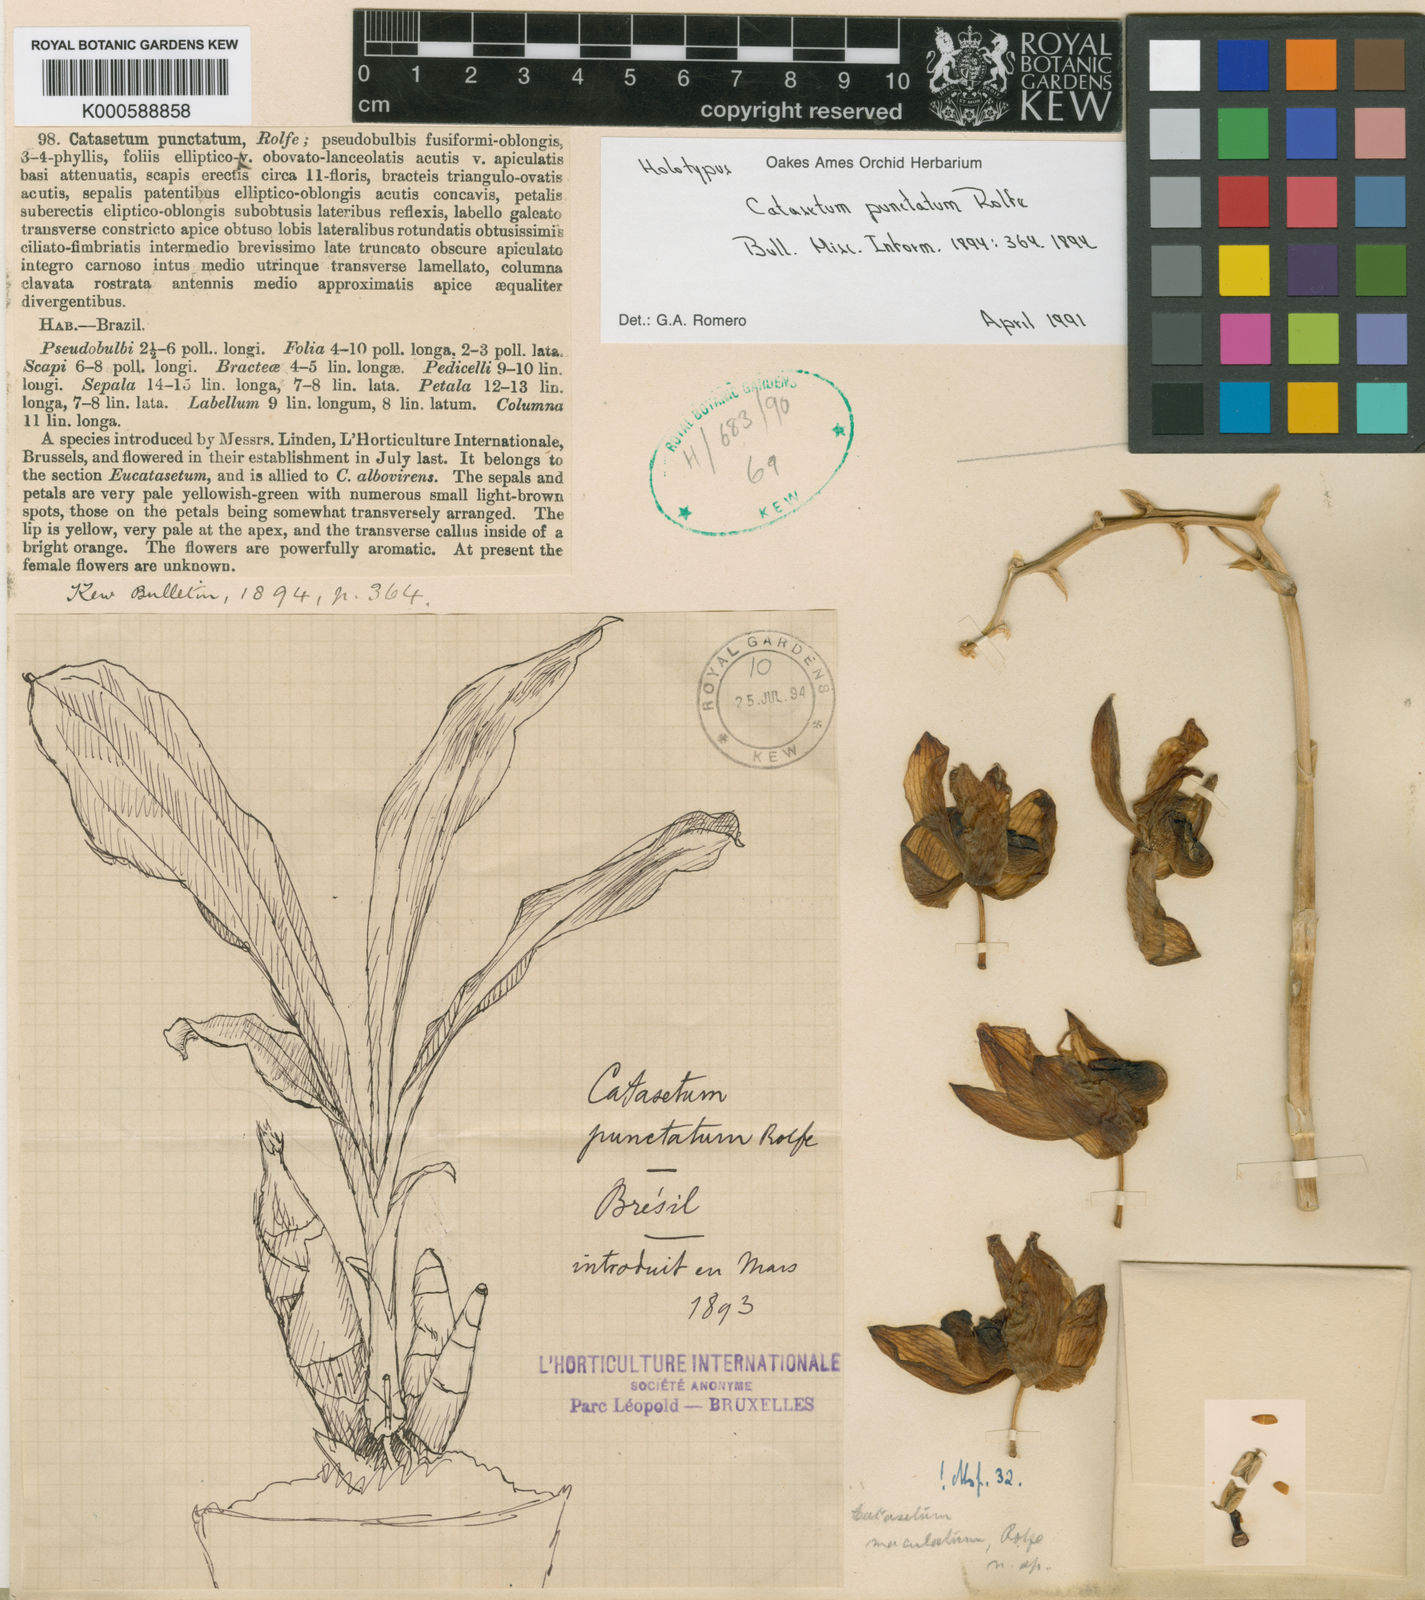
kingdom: Plantae
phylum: Tracheophyta
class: Liliopsida
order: Asparagales
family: Orchidaceae
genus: Catasetum
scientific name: Catasetum punctatum
